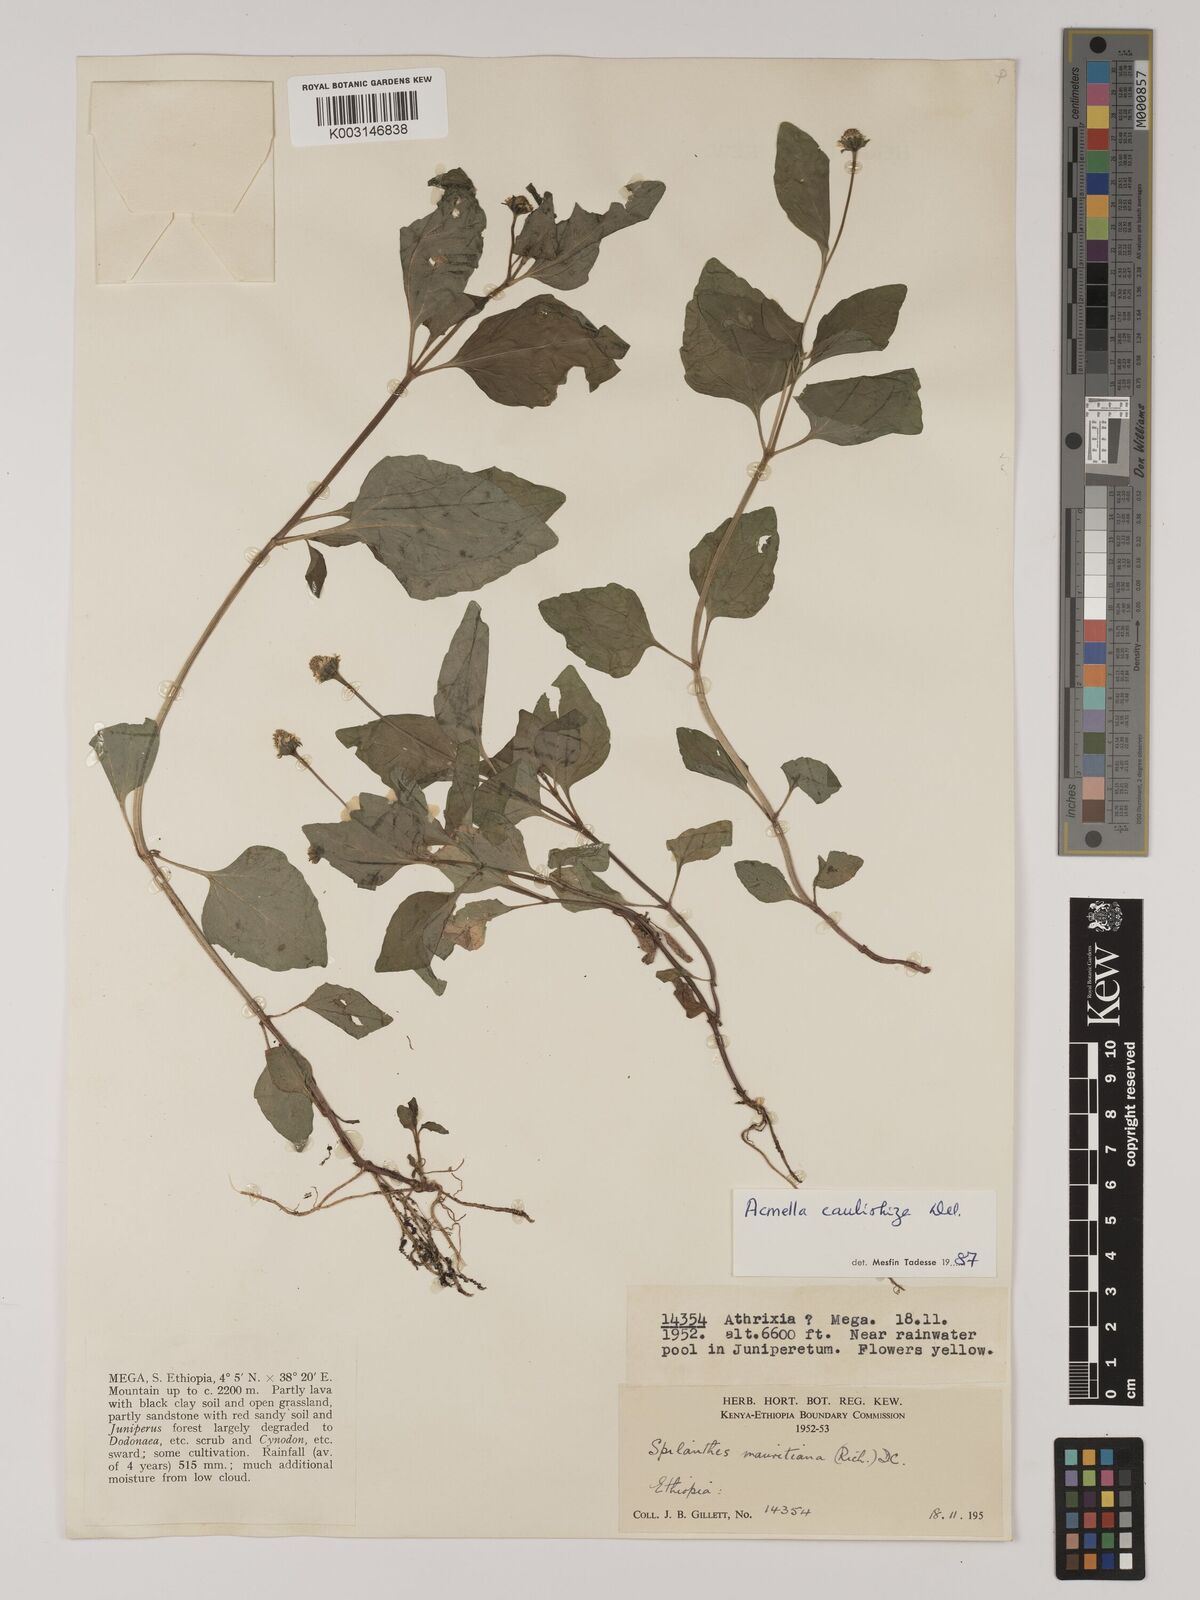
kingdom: Plantae
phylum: Tracheophyta
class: Magnoliopsida
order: Asterales
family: Asteraceae
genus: Acmella
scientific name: Acmella caulirhiza
